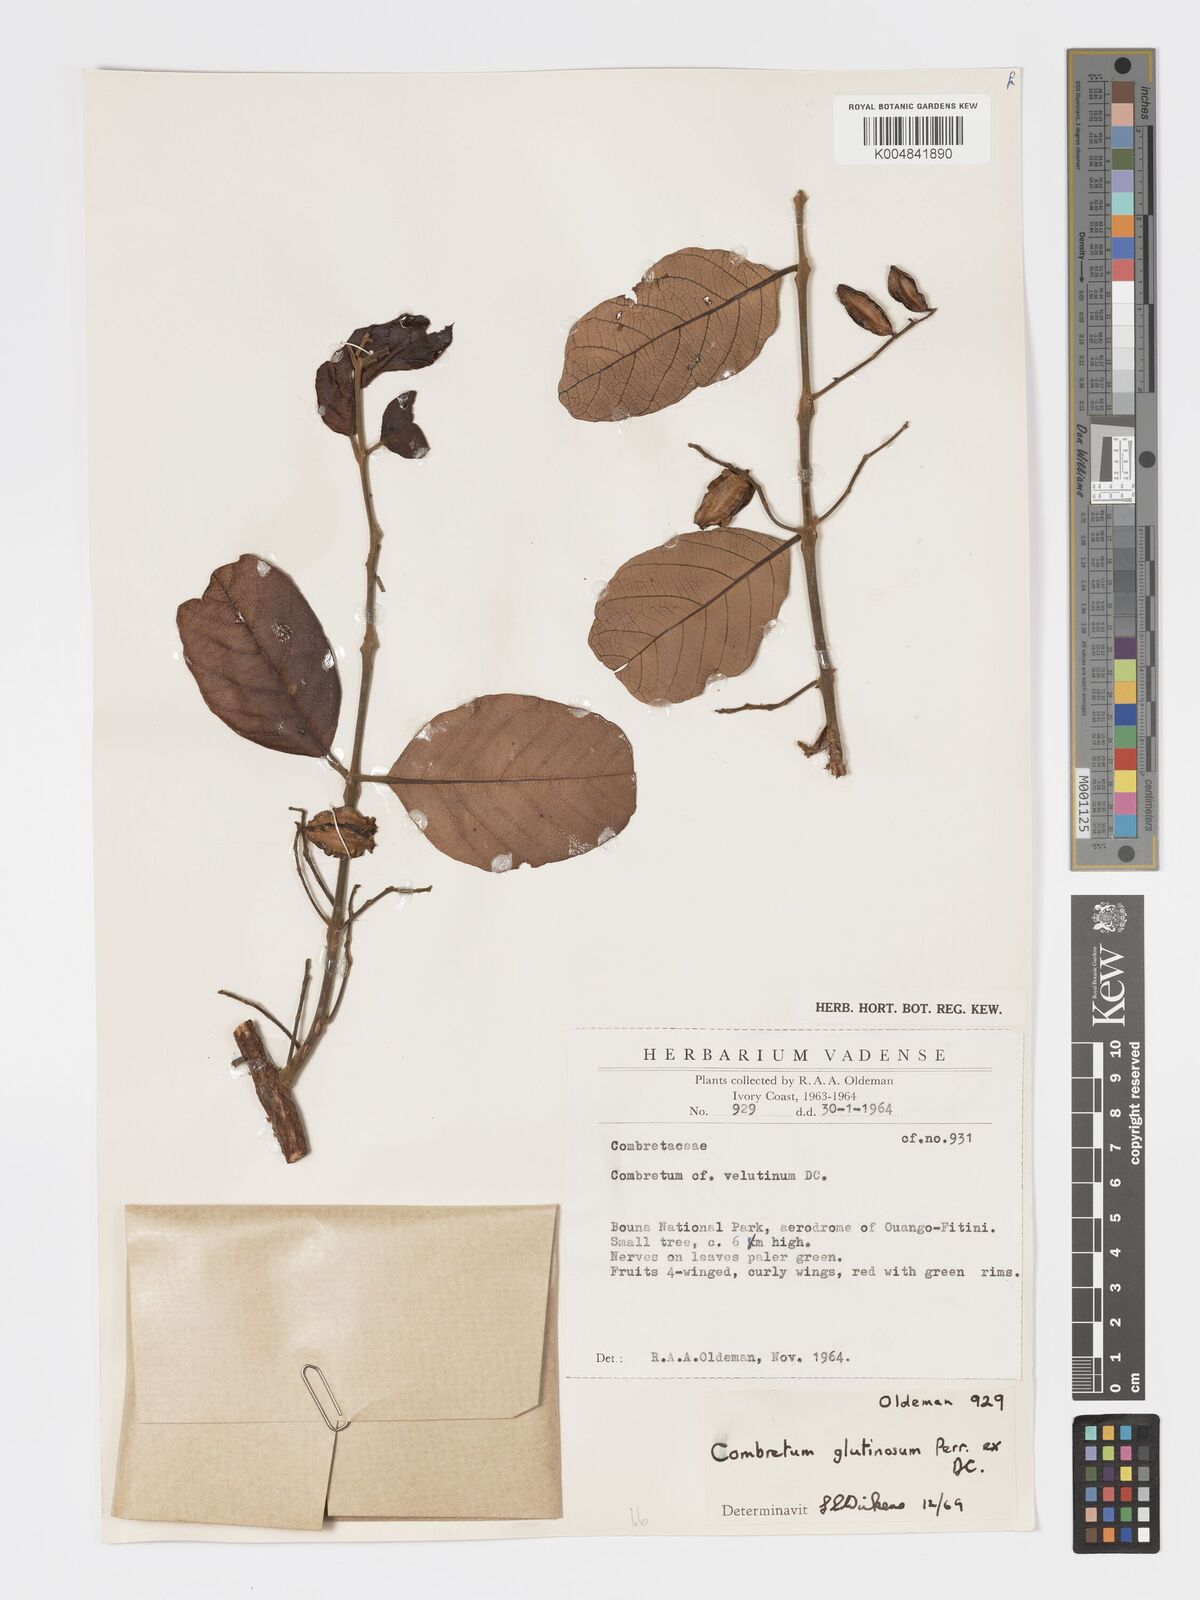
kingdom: Plantae
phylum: Tracheophyta
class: Magnoliopsida
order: Myrtales
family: Combretaceae
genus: Combretum
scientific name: Combretum
